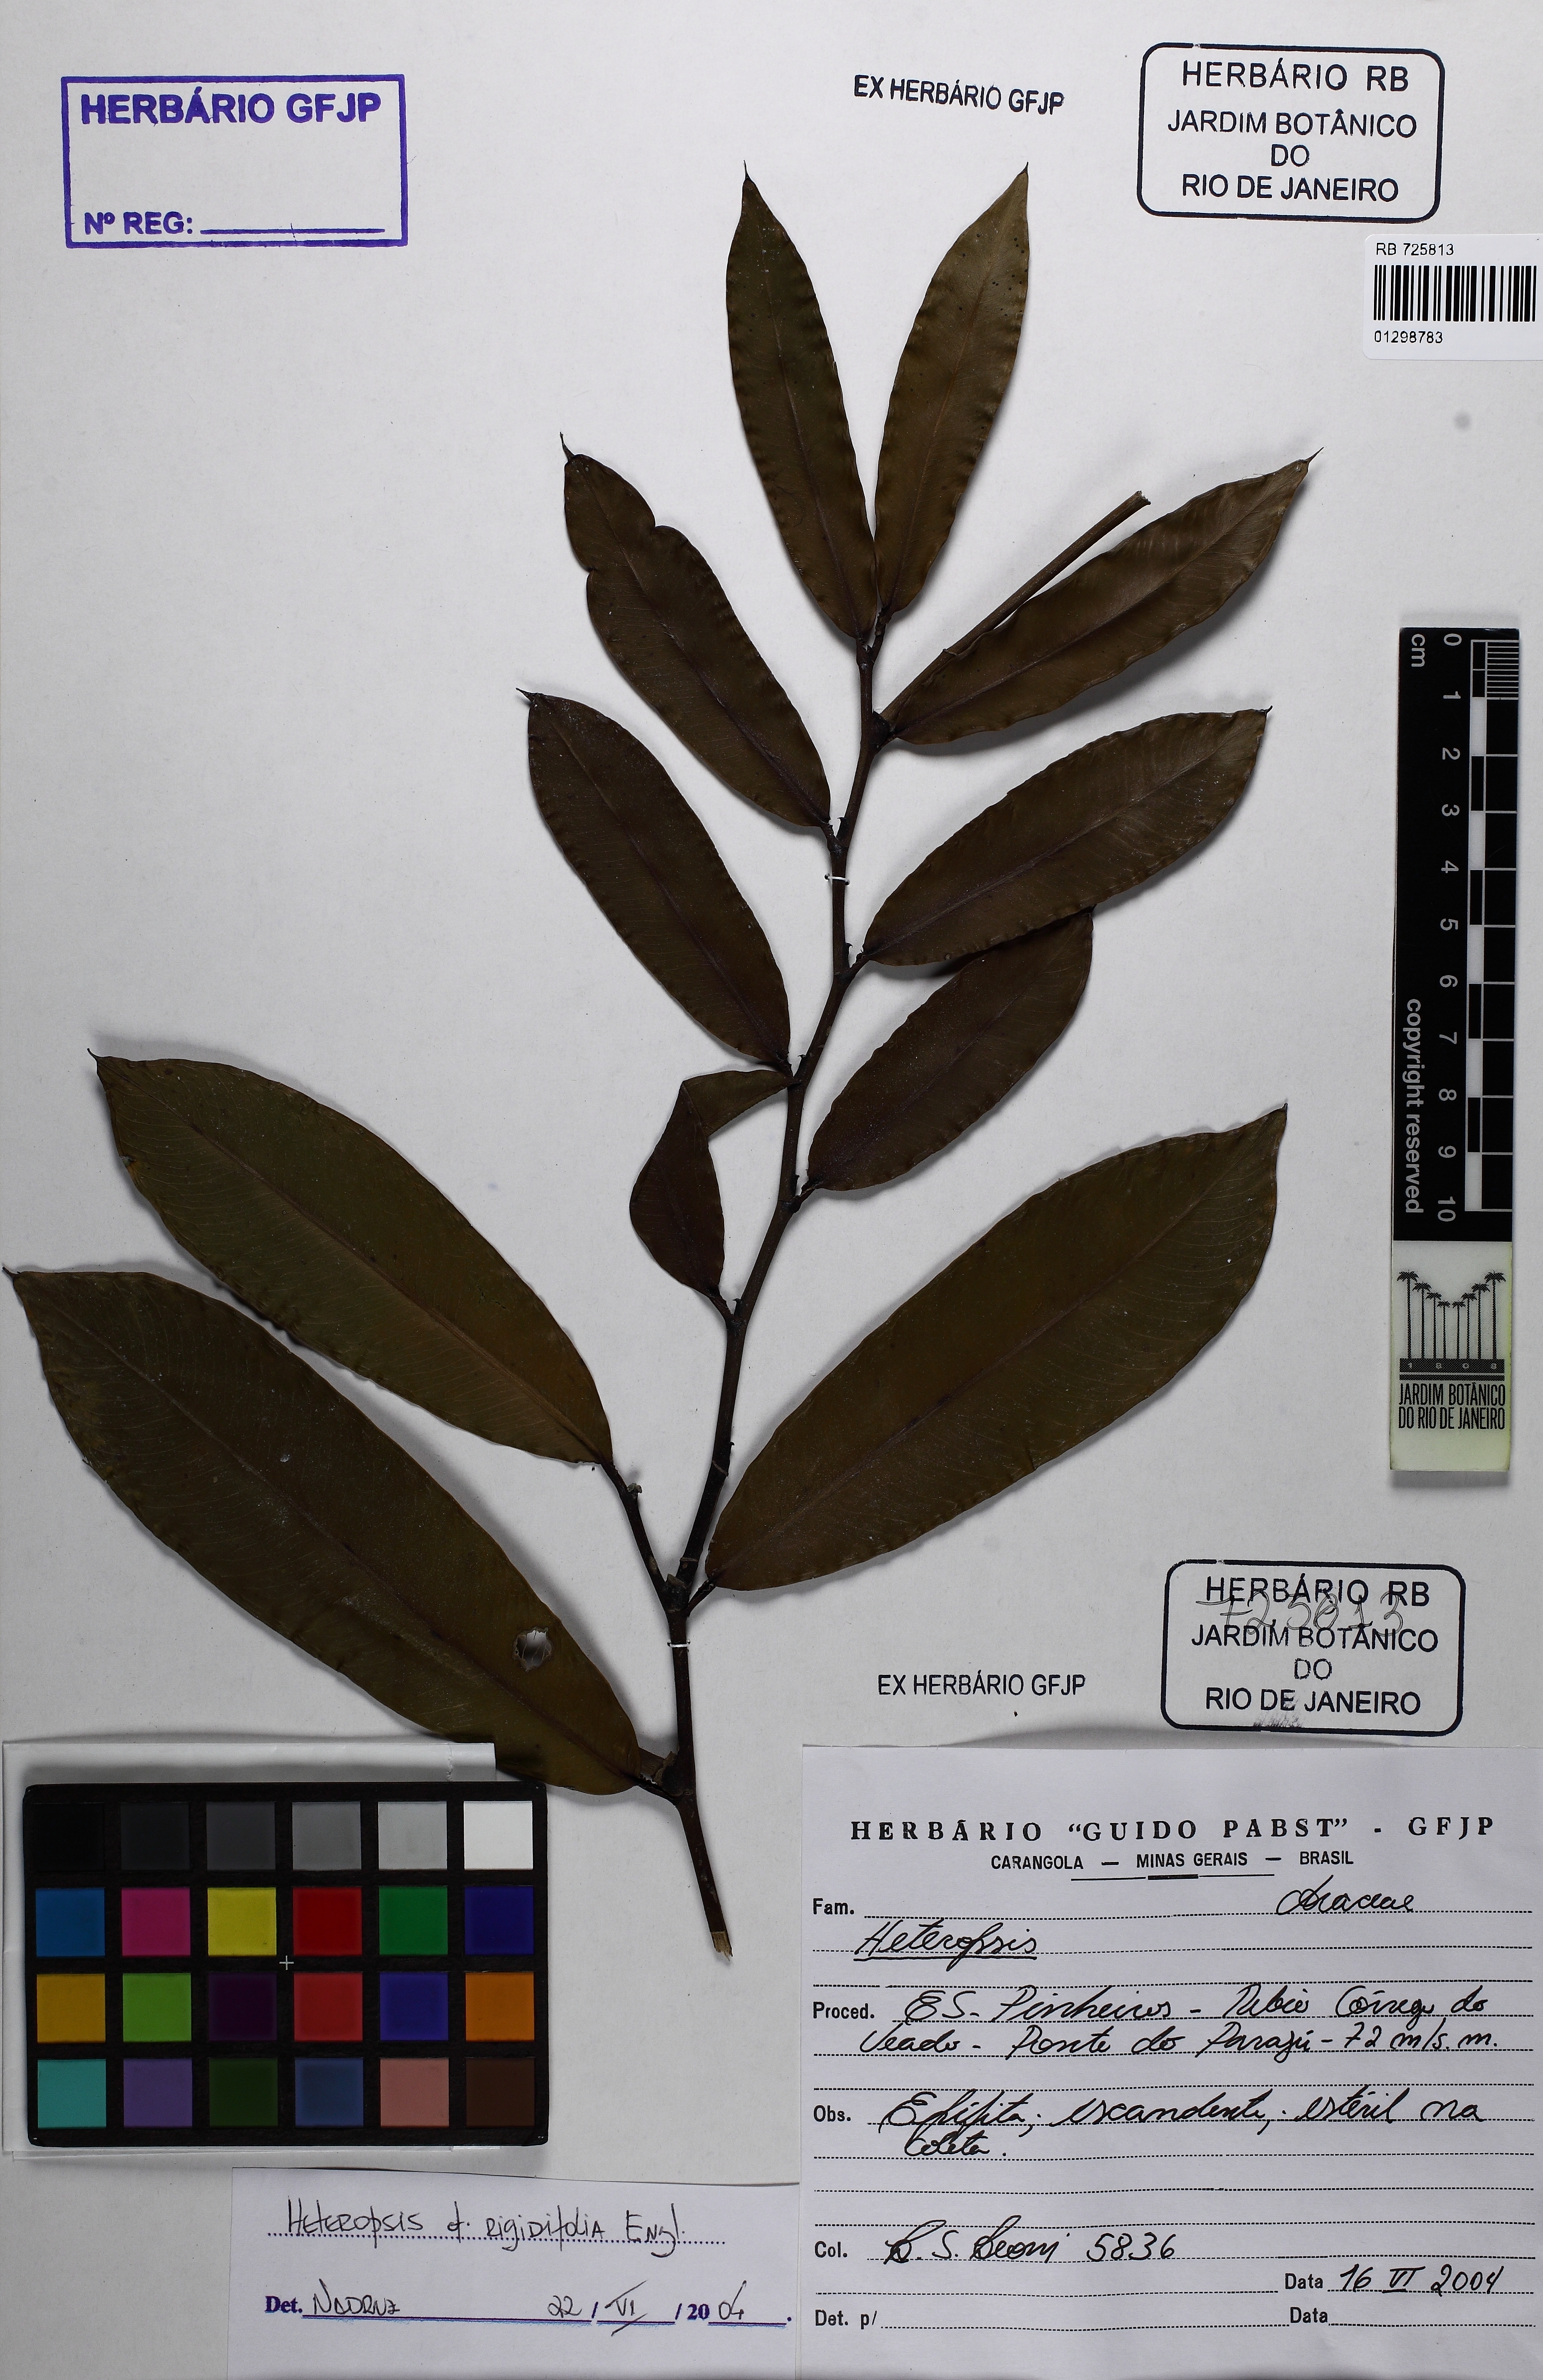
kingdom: Plantae
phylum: Tracheophyta
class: Liliopsida
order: Alismatales
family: Araceae
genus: Heteropsis
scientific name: Heteropsis rigidifolia
